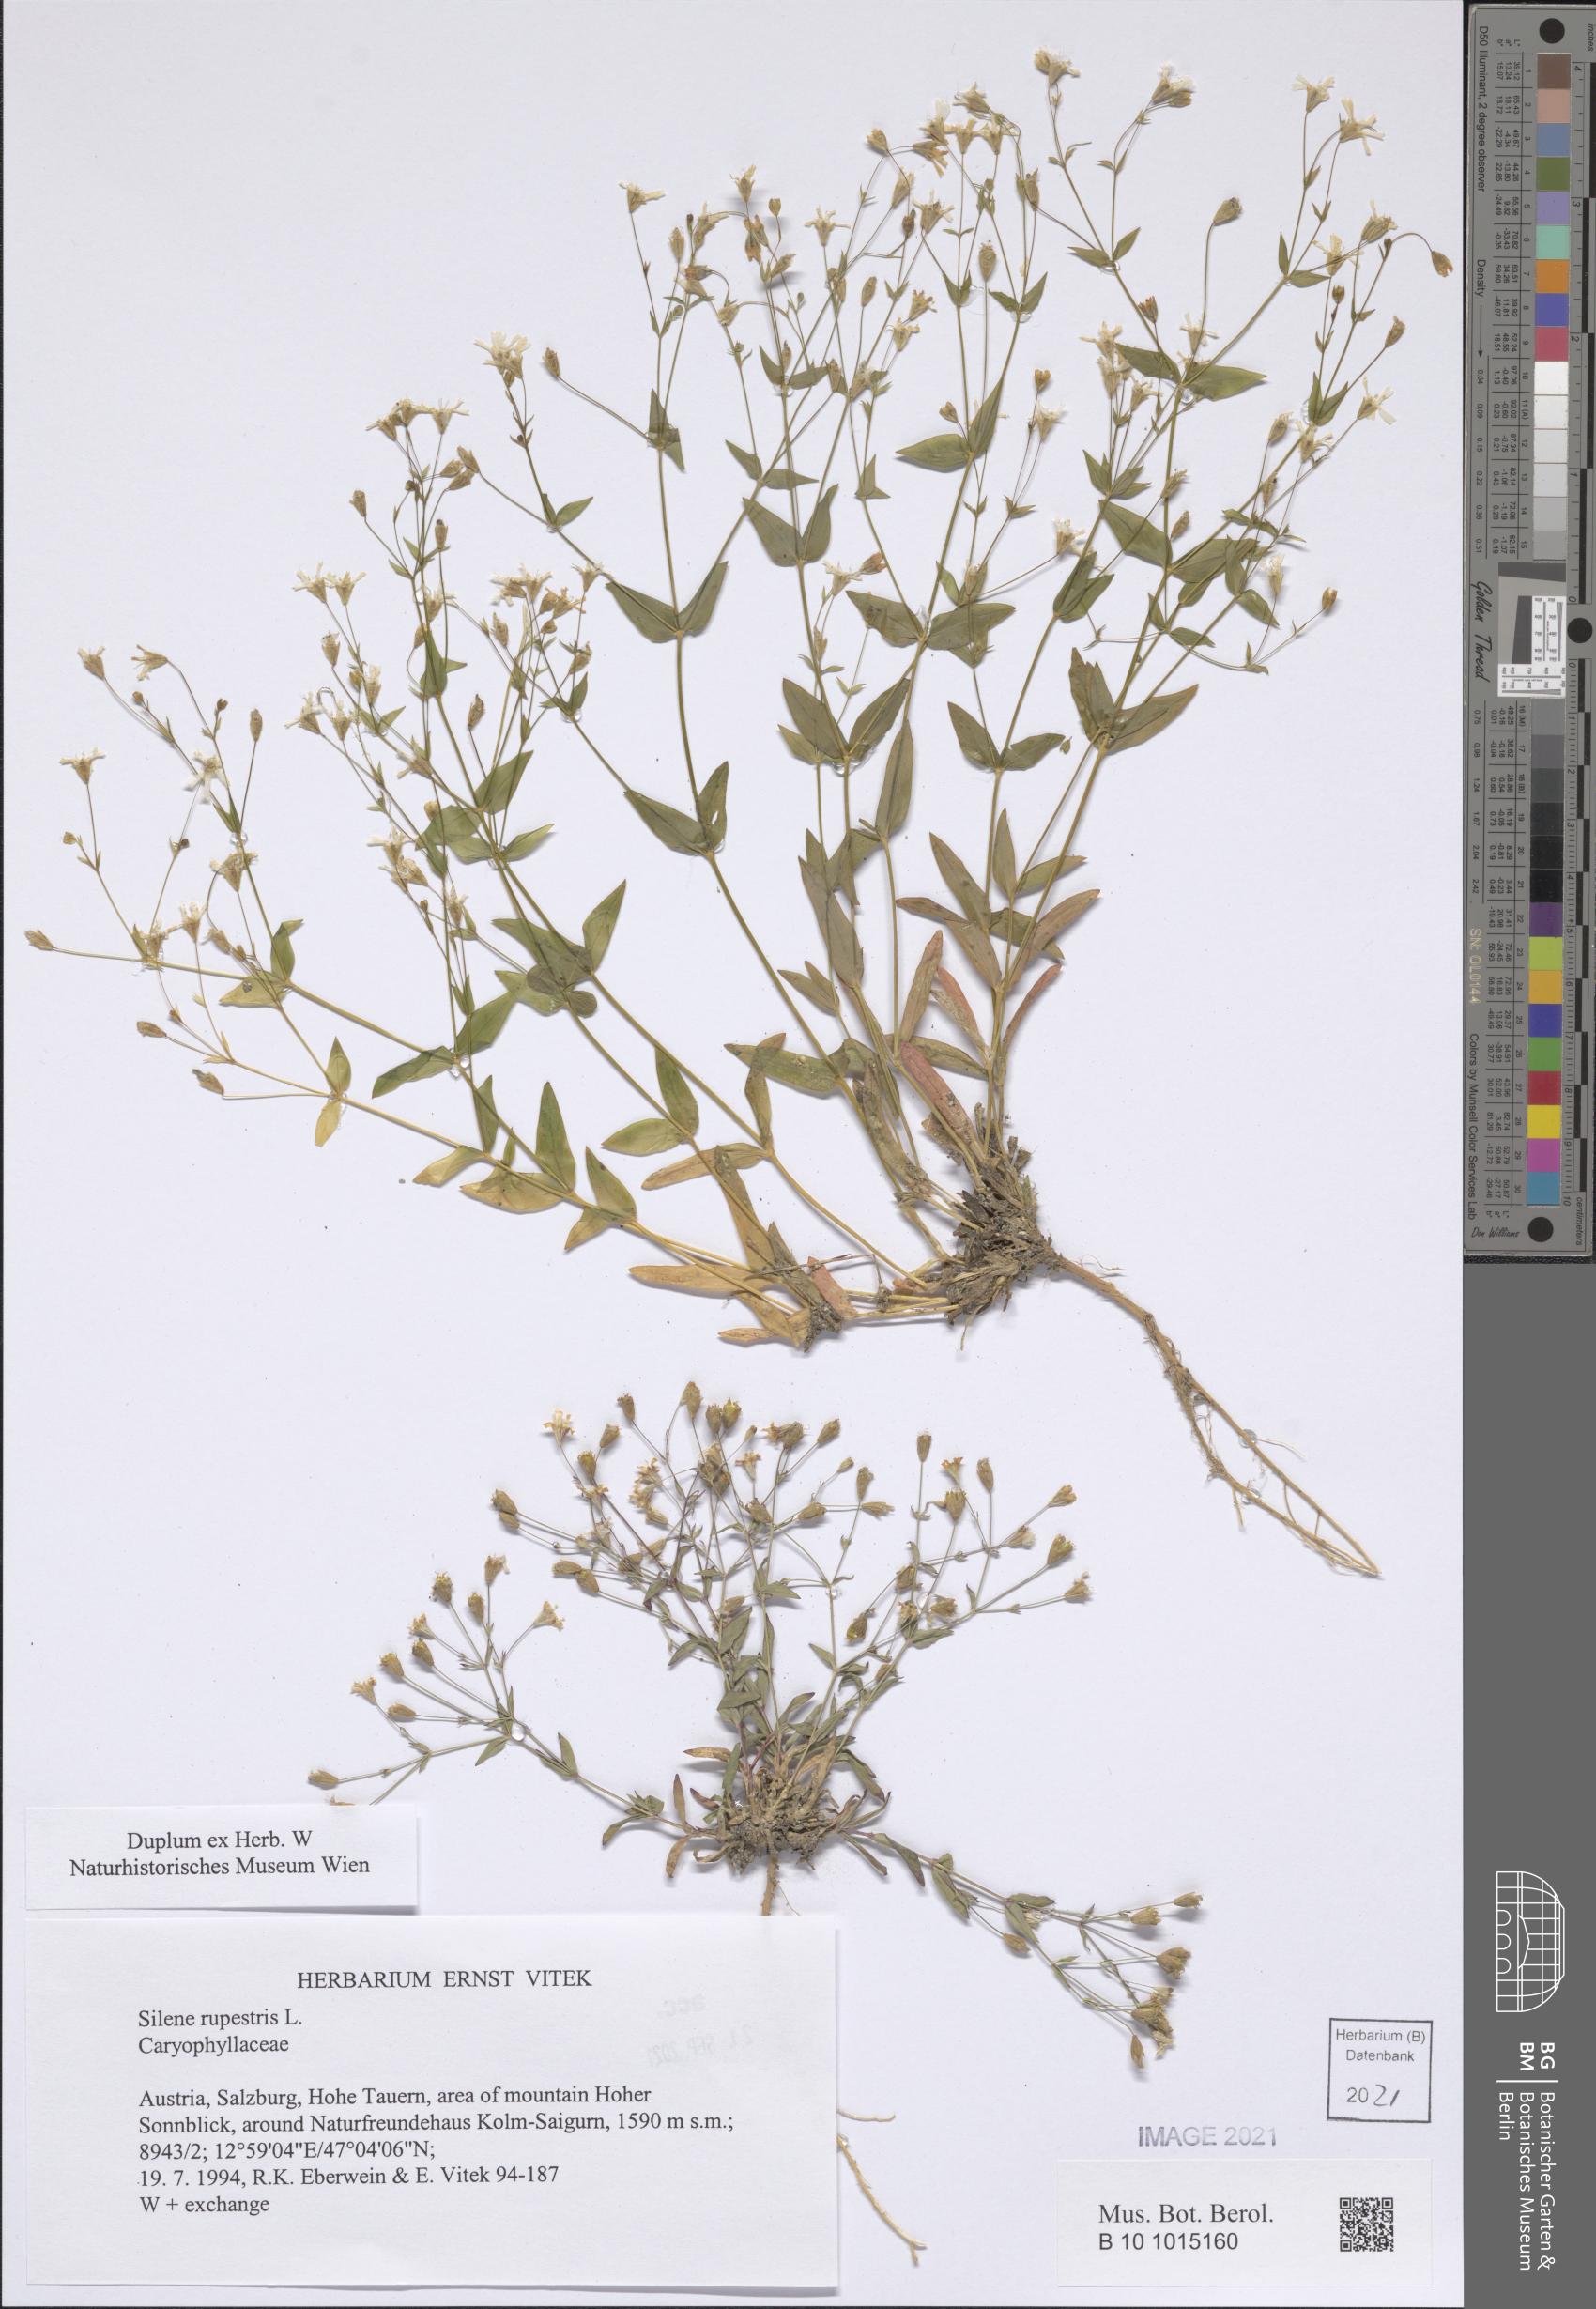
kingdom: Plantae
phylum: Tracheophyta
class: Magnoliopsida
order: Caryophyllales
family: Caryophyllaceae
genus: Atocion
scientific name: Atocion rupestre
